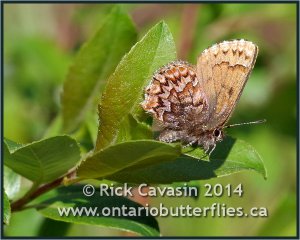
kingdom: Animalia
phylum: Arthropoda
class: Insecta
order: Lepidoptera
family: Lycaenidae
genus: Incisalia
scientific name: Incisalia eryphon
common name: Western Pine Elfin
